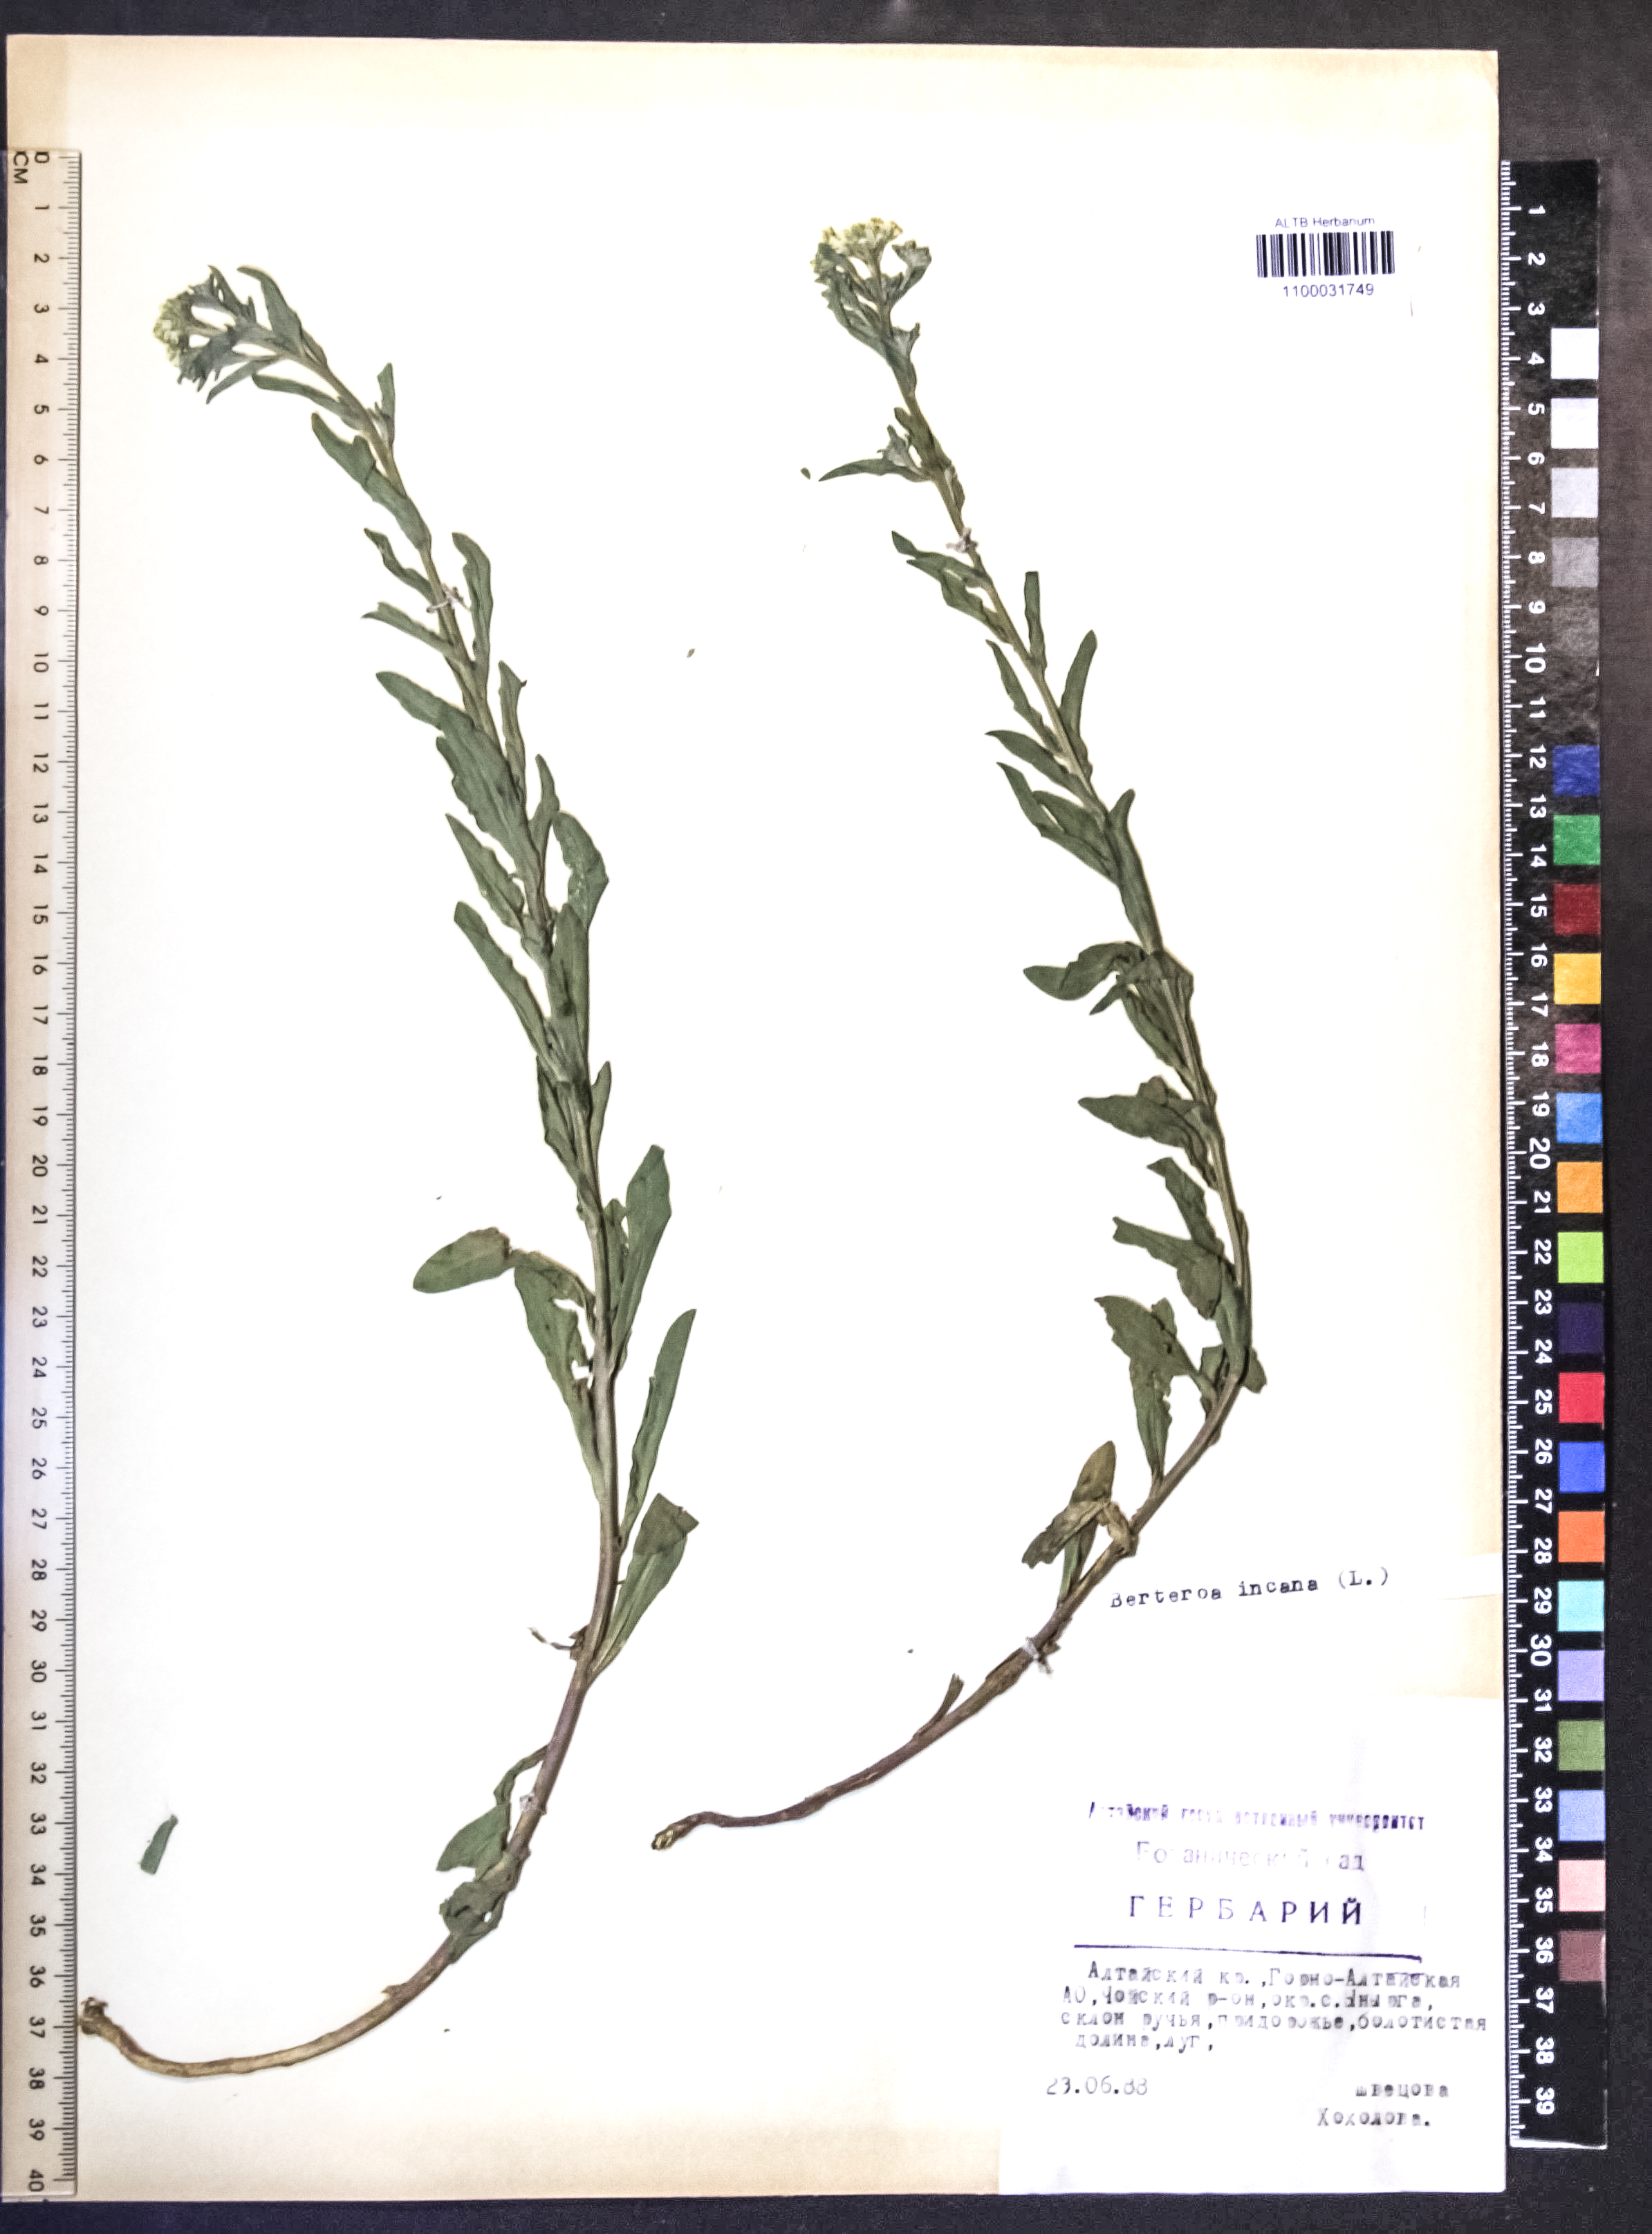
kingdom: Plantae
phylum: Tracheophyta
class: Magnoliopsida
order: Brassicales
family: Brassicaceae
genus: Berteroa
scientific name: Berteroa incana
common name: Hoary alison
